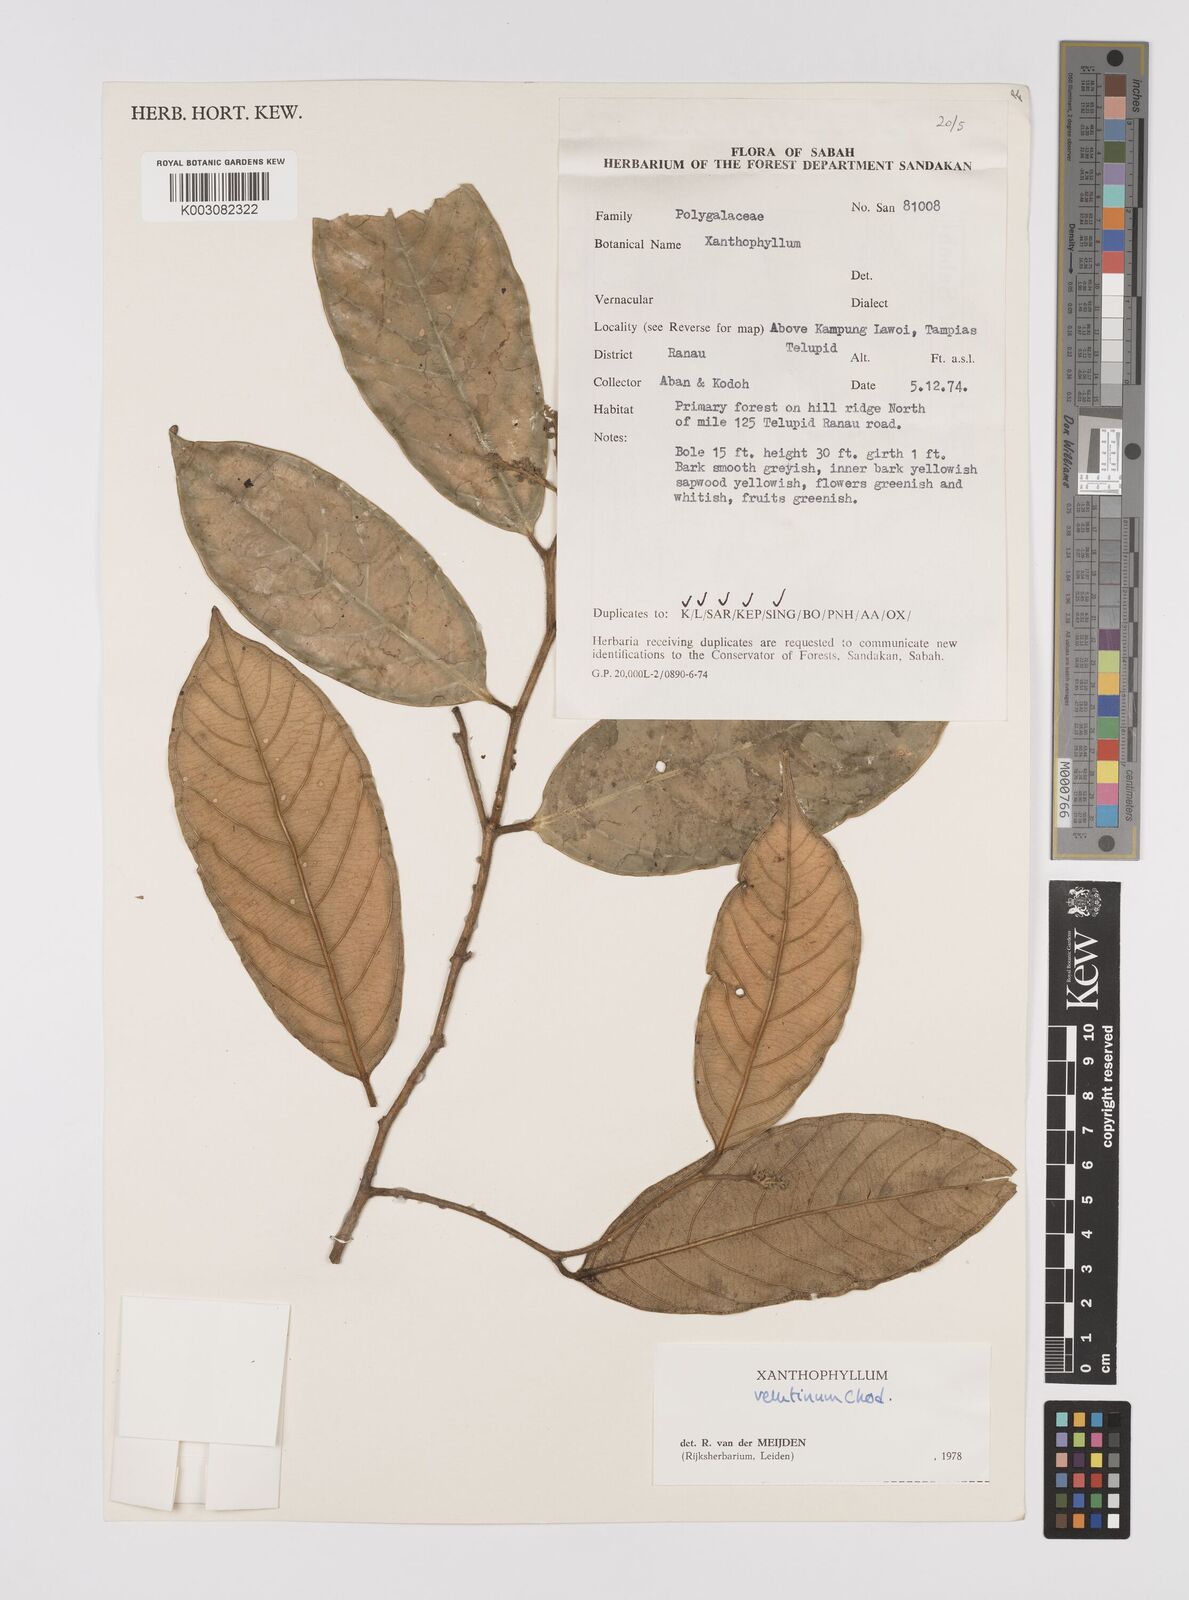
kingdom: Plantae
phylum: Tracheophyta
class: Magnoliopsida
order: Fabales
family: Polygalaceae
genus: Xanthophyllum
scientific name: Xanthophyllum velutinum
